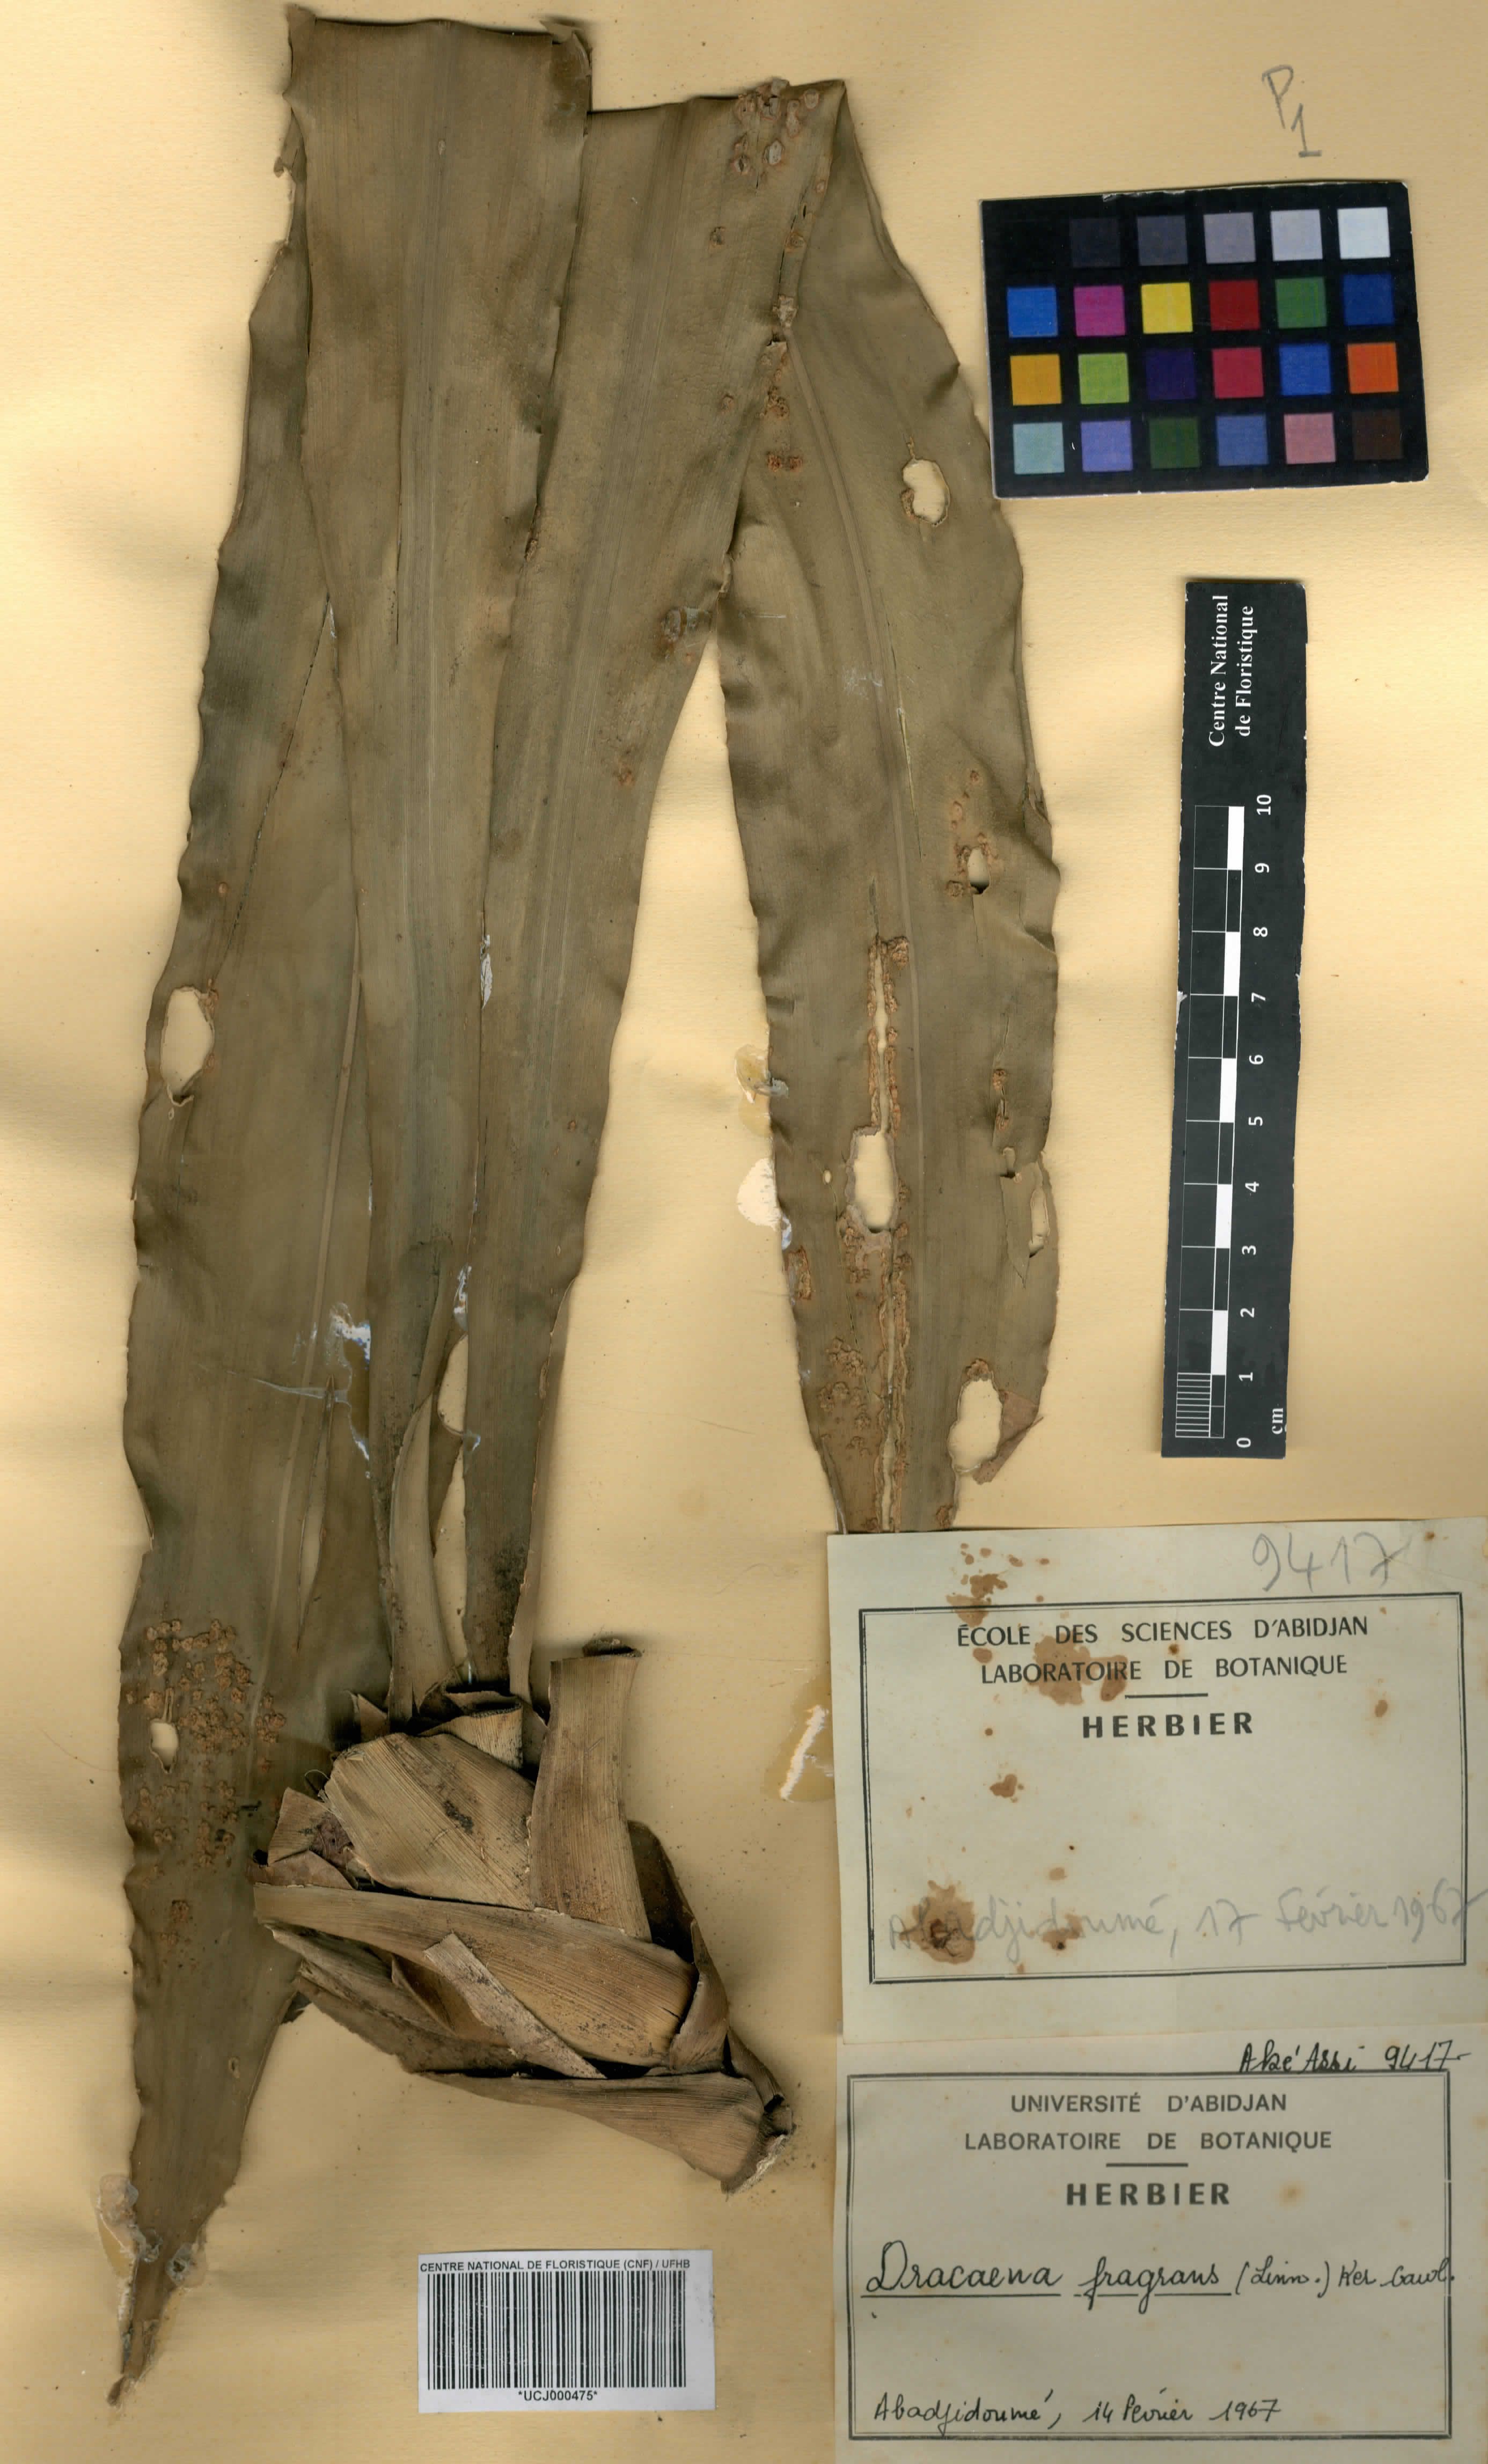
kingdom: Plantae
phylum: Tracheophyta
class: Liliopsida
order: Asparagales
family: Asparagaceae
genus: Dracaena
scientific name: Dracaena fragrans
